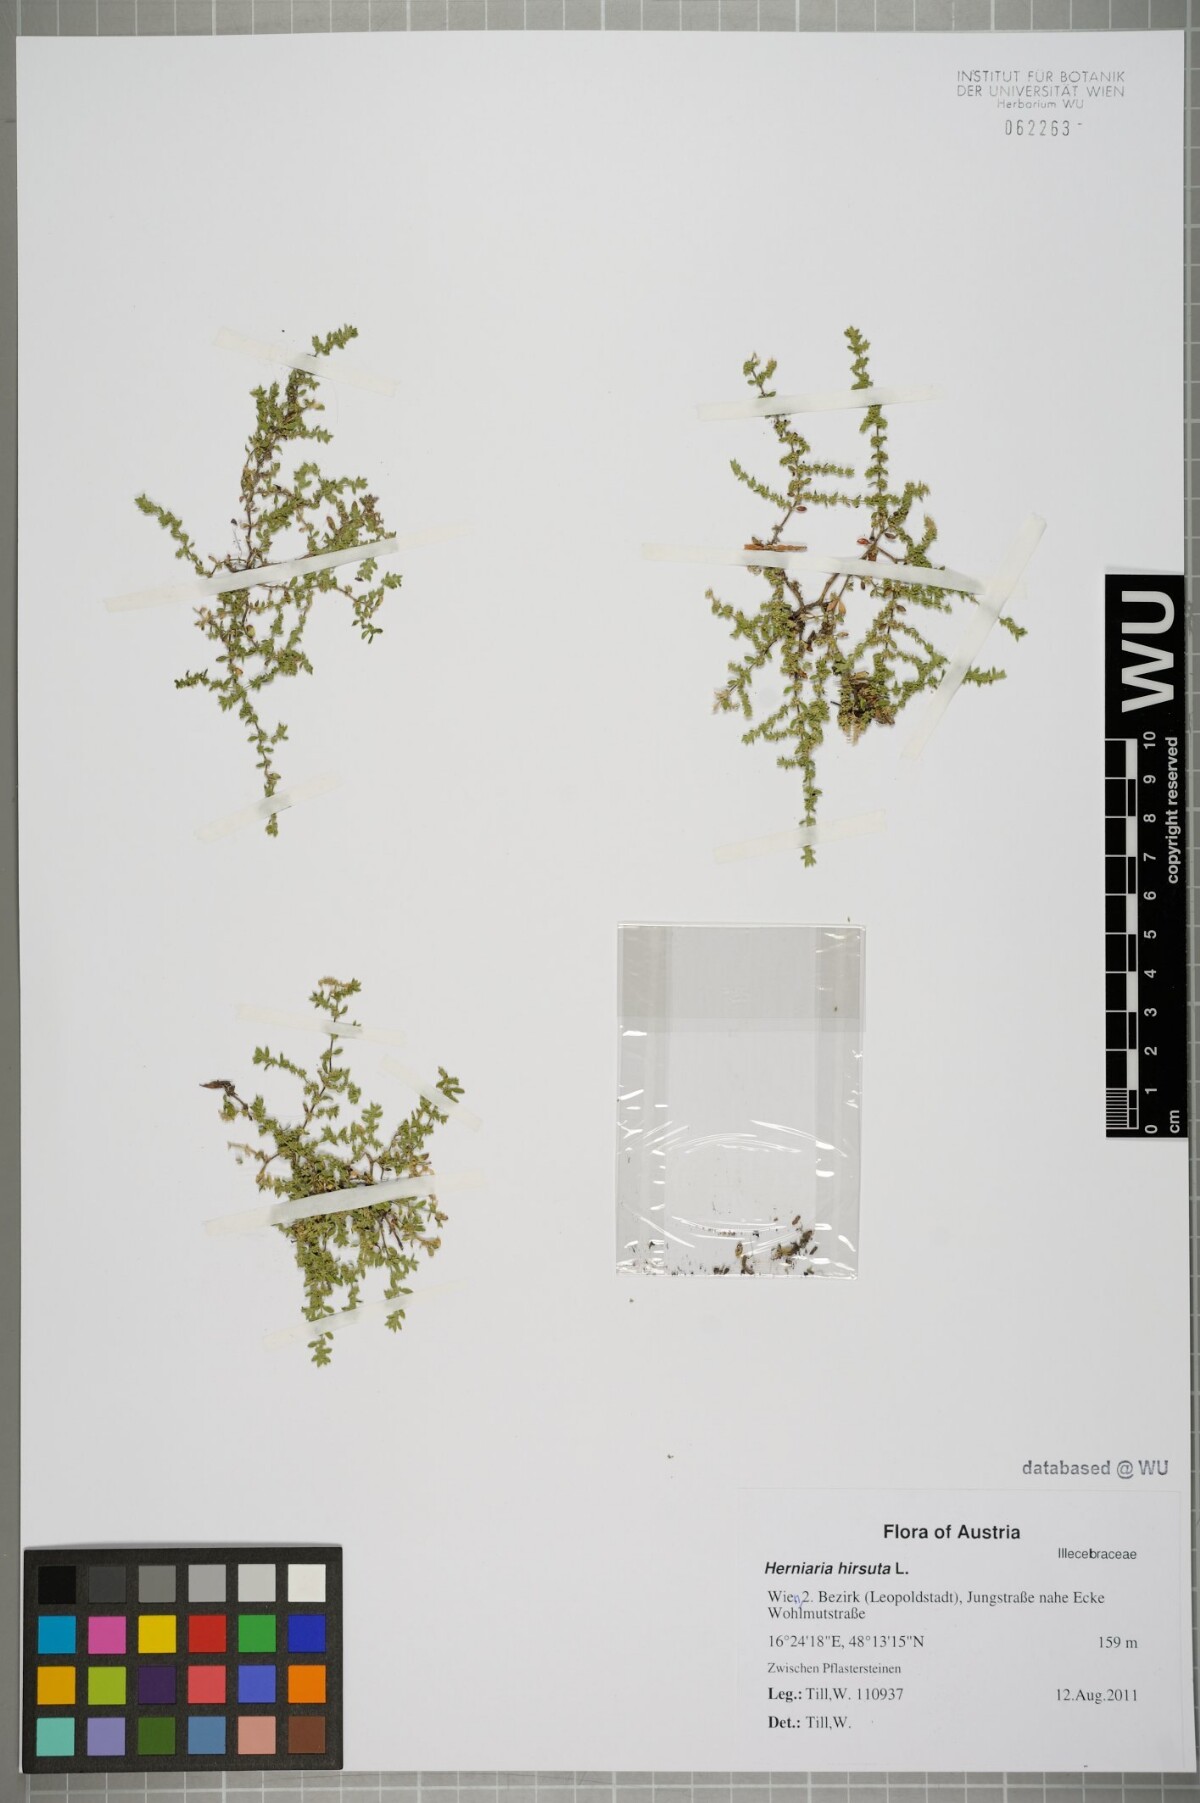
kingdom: Plantae
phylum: Tracheophyta
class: Magnoliopsida
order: Caryophyllales
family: Caryophyllaceae
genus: Herniaria
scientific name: Herniaria hirsuta
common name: Hairy rupturewort
